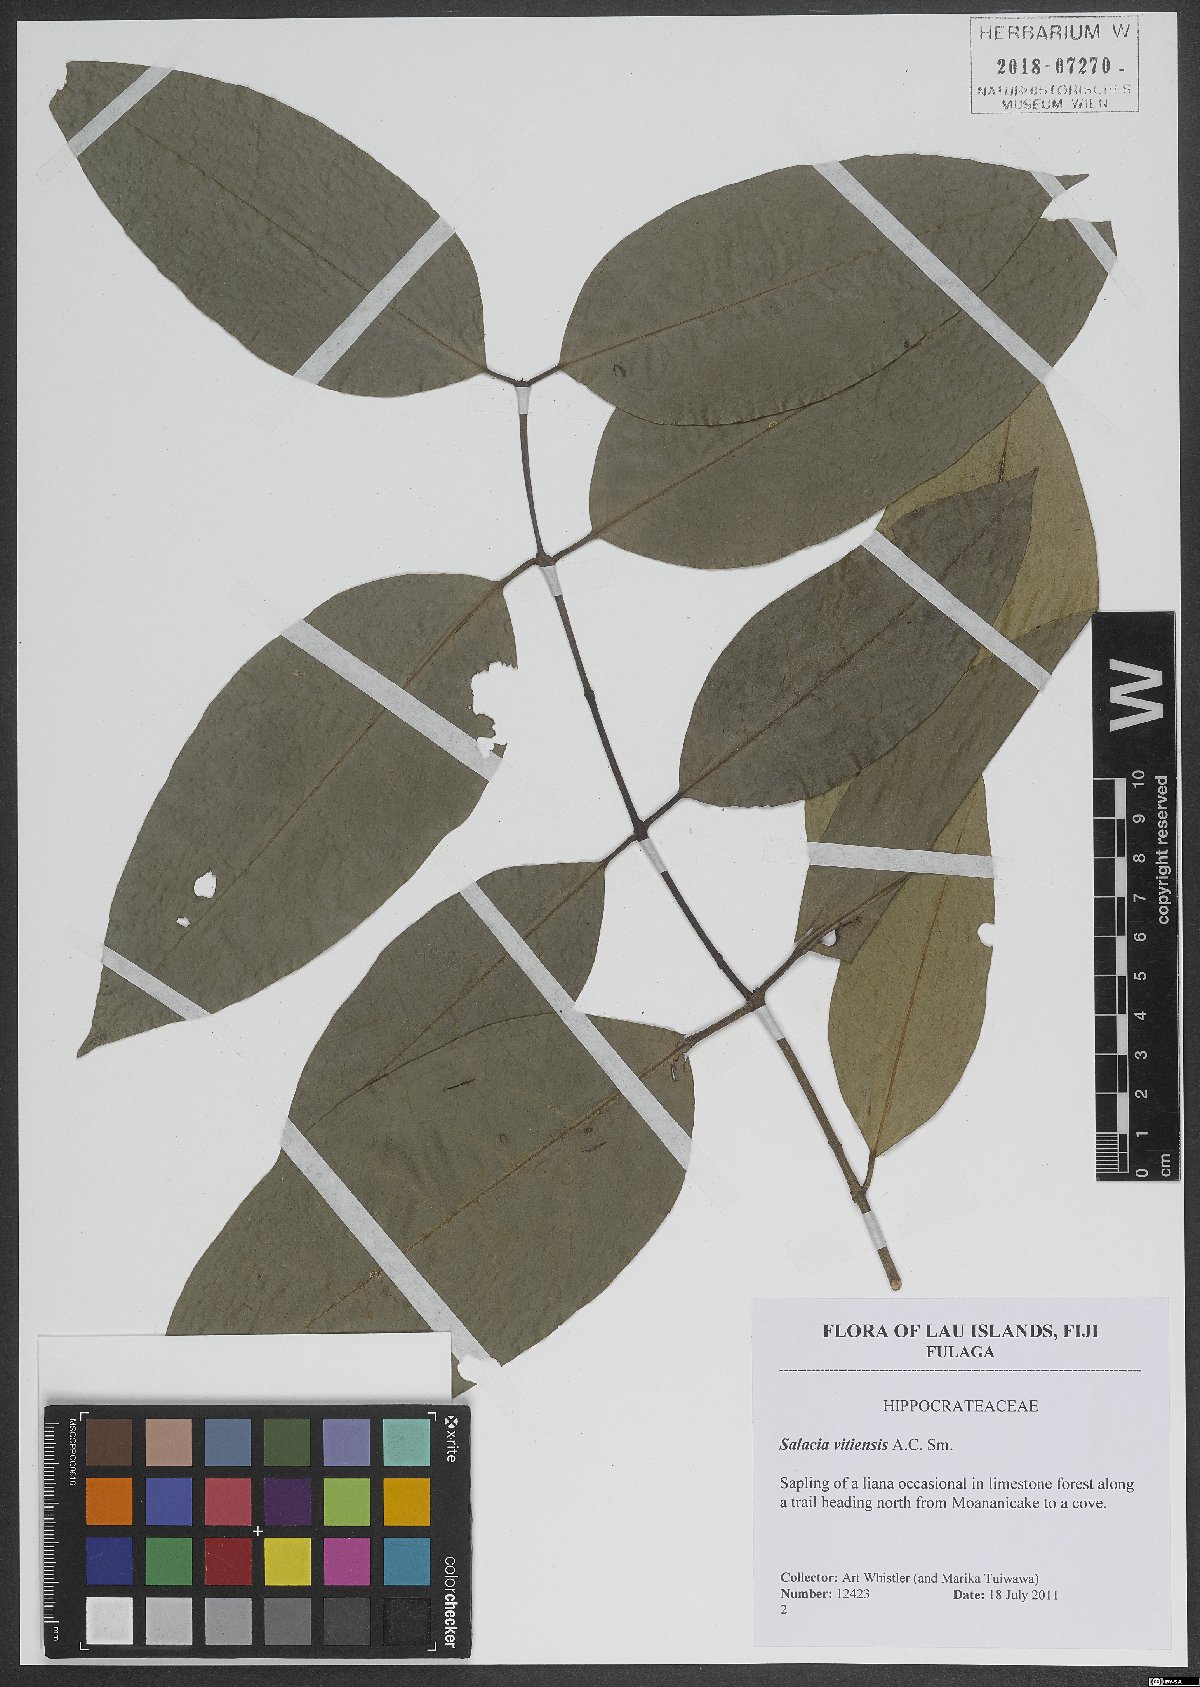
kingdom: Plantae
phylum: Tracheophyta
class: Magnoliopsida
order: Celastrales
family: Celastraceae
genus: Salacia
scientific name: Salacia vitiensis
